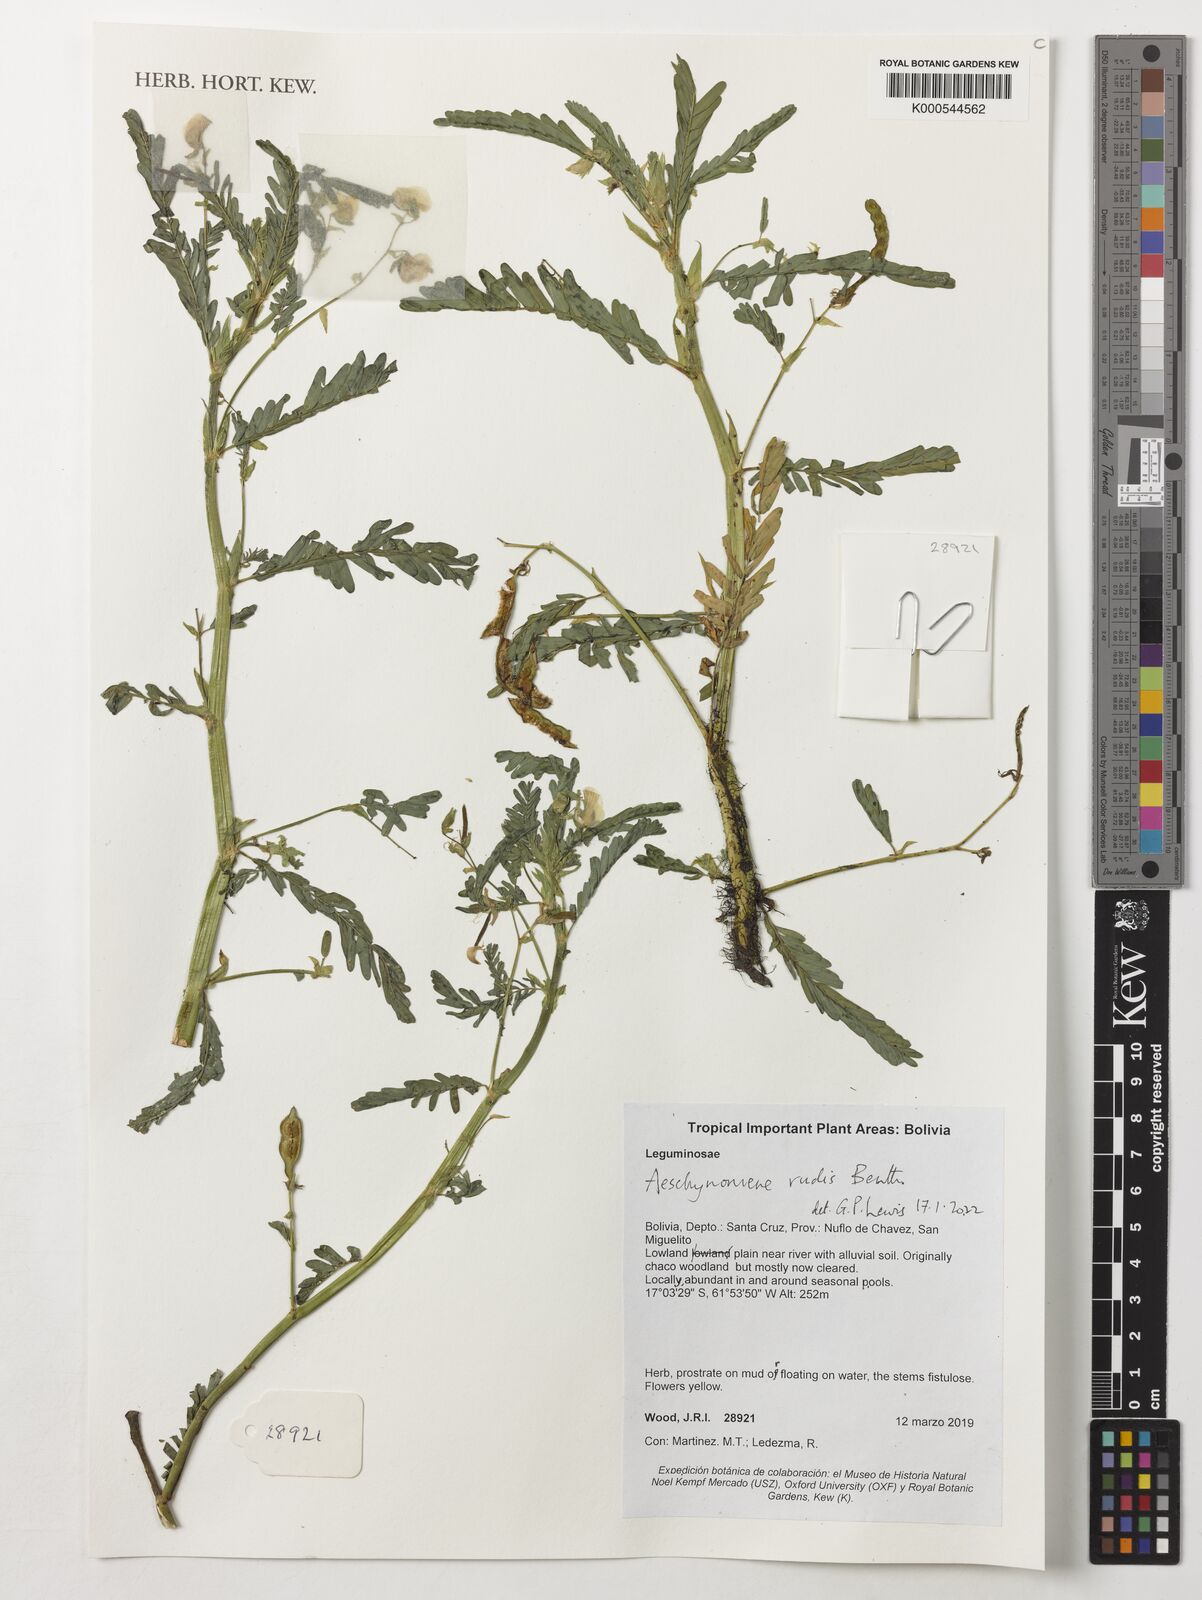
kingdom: Plantae
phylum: Tracheophyta
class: Magnoliopsida
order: Fabales
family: Fabaceae
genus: Aeschynomene
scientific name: Aeschynomene rudis
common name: Rough joint-vetch
